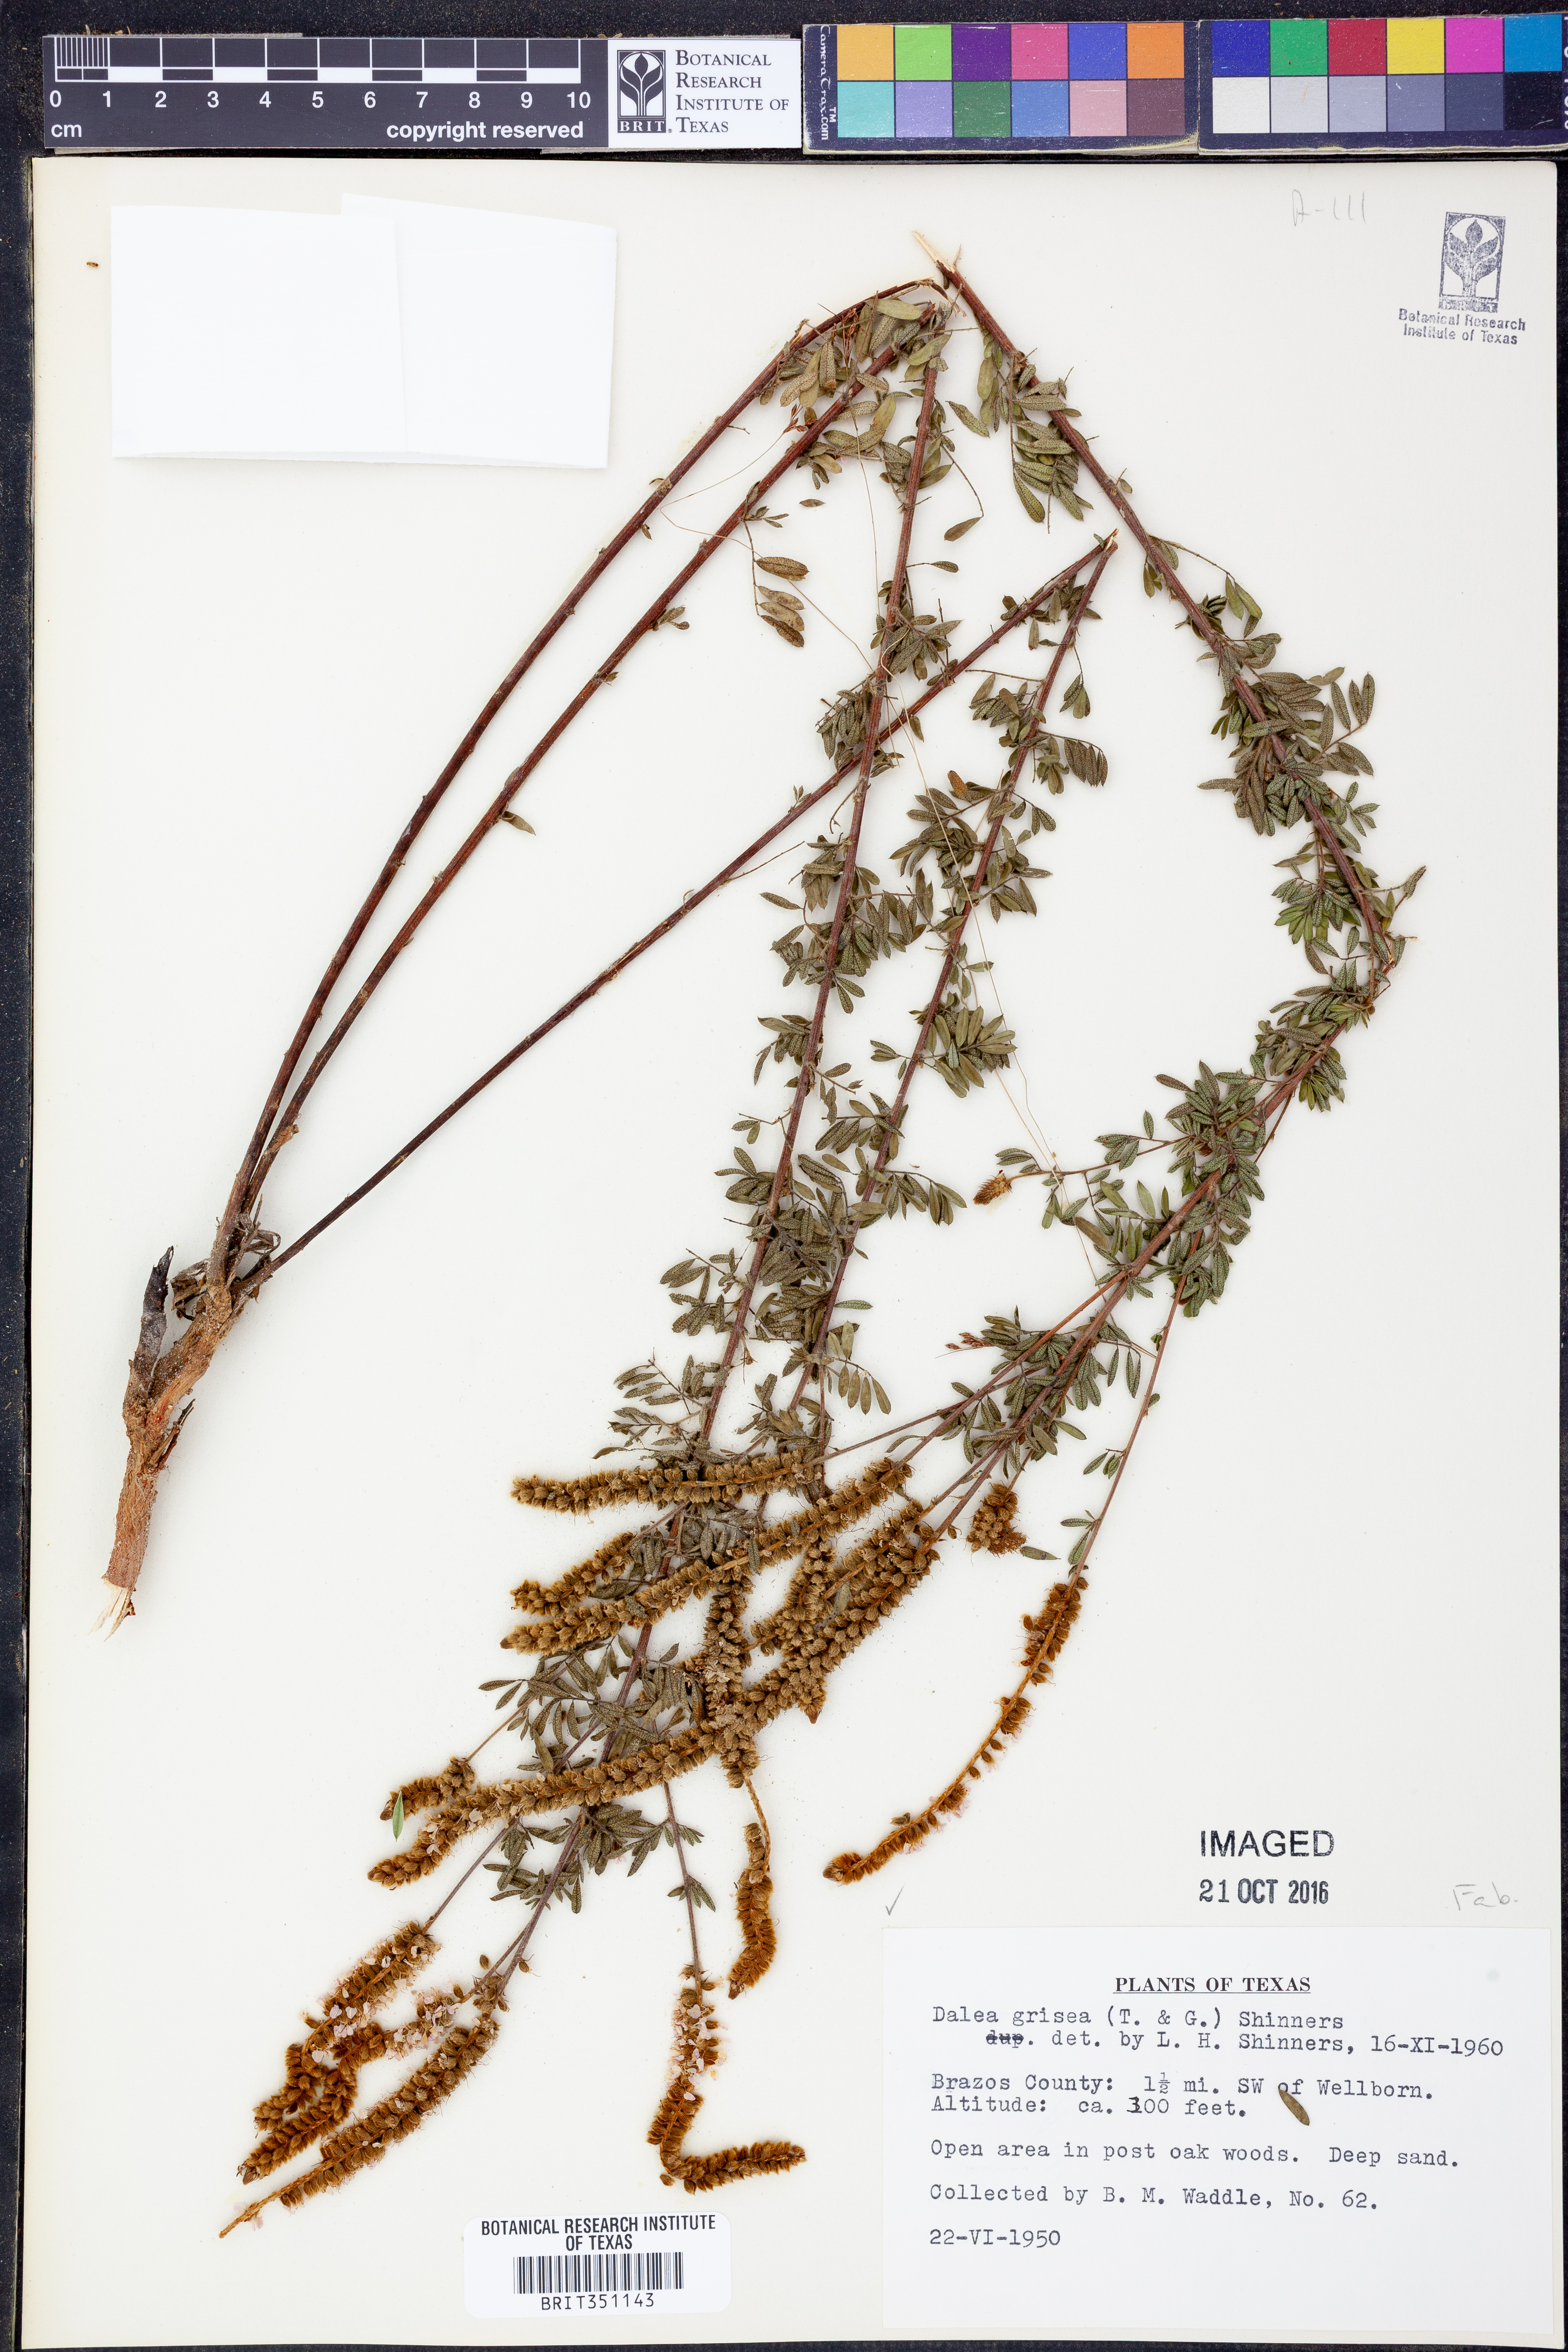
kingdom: Plantae
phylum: Tracheophyta
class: Magnoliopsida
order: Fabales
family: Fabaceae
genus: Dalea
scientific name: Dalea villosa
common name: Silky prairie-clover
